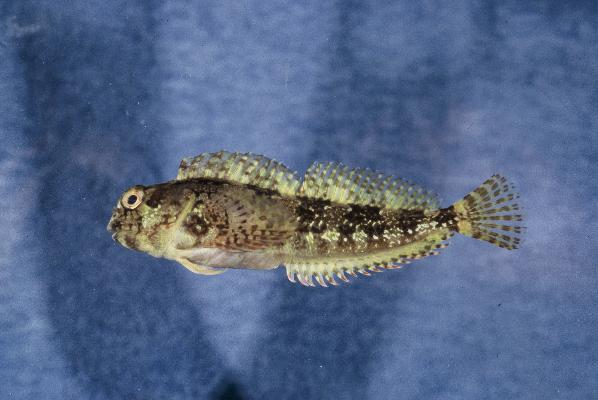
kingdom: Animalia
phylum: Chordata
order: Perciformes
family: Blenniidae
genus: Lipophrys
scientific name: Lipophrys trigloides
